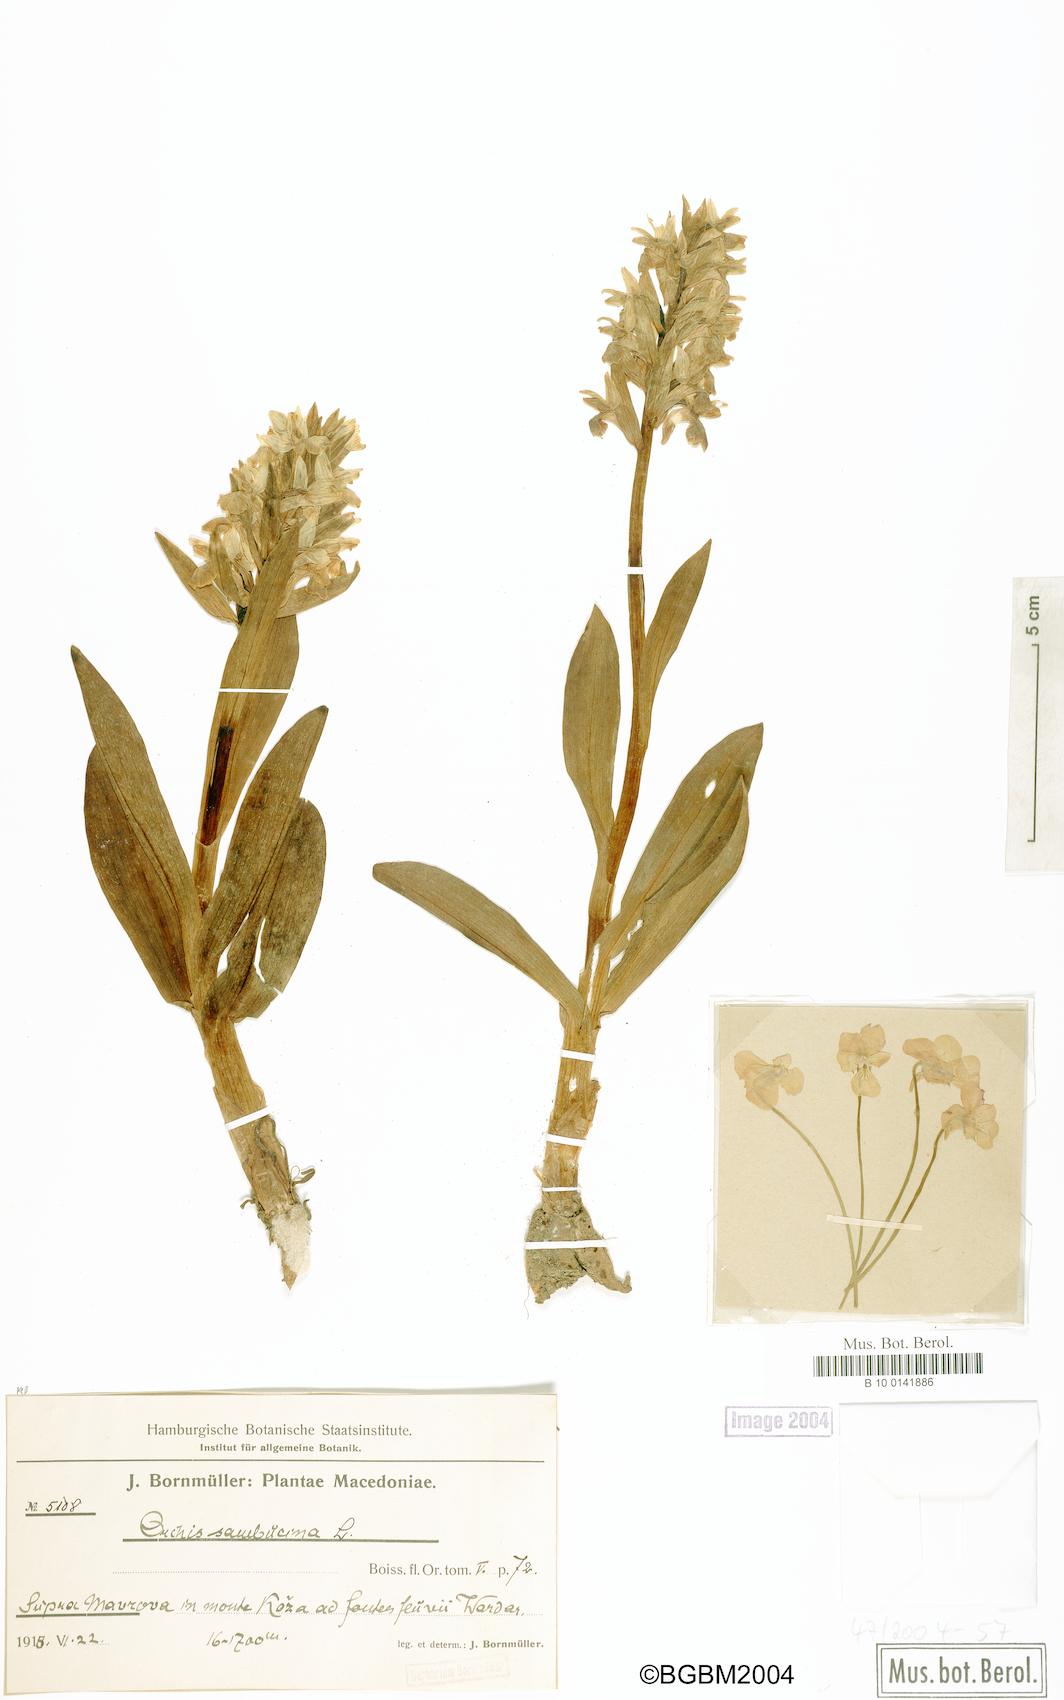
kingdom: Plantae
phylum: Tracheophyta
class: Liliopsida
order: Asparagales
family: Orchidaceae
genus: Dactylorhiza
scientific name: Dactylorhiza sambucina
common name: Elder-flowered orchid
